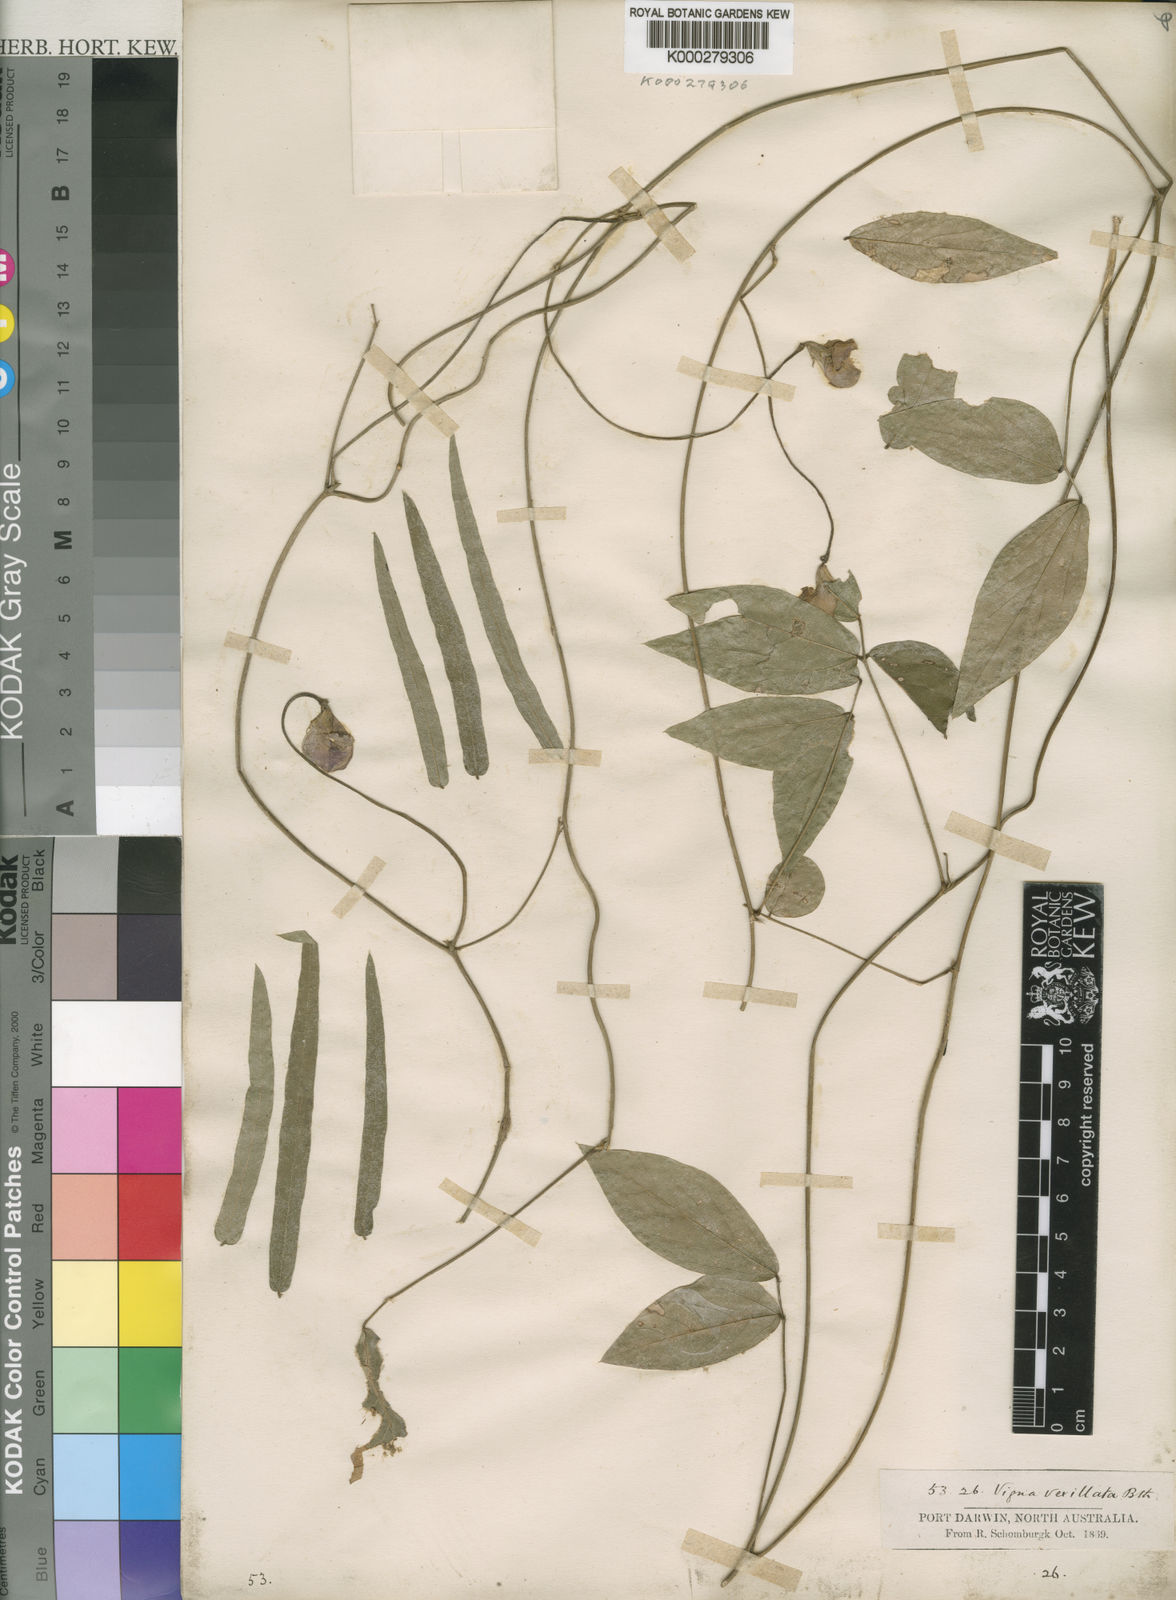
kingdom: Plantae
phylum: Tracheophyta
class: Magnoliopsida
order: Fabales
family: Fabaceae
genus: Vigna
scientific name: Vigna vexillata
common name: Zombi pea
